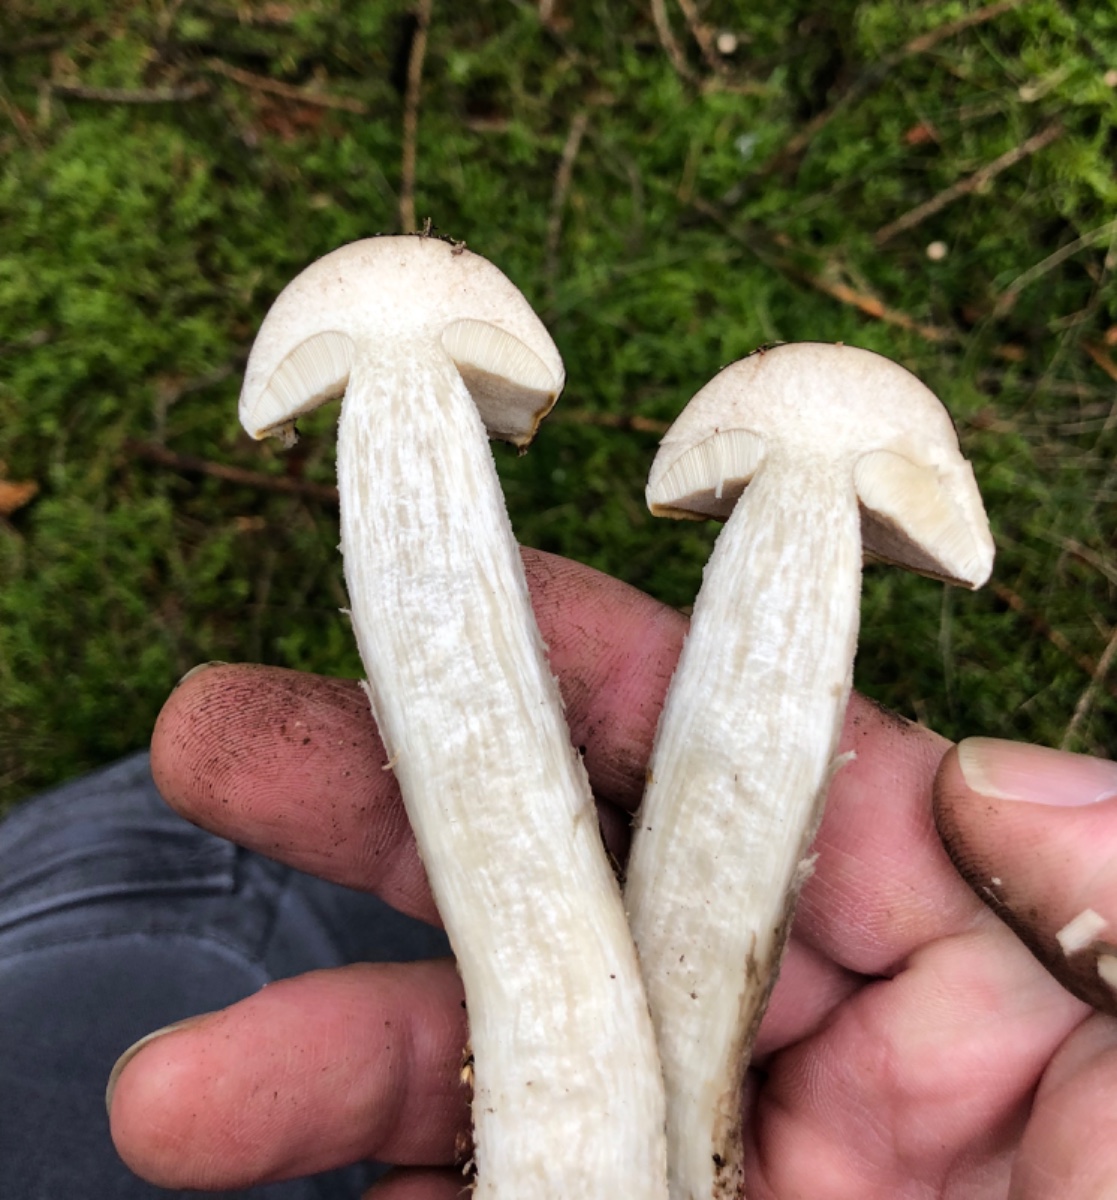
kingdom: Fungi
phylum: Basidiomycota
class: Agaricomycetes
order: Boletales
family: Boletaceae
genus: Leccinum
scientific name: Leccinum melaneum
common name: mørk skælrørhat
